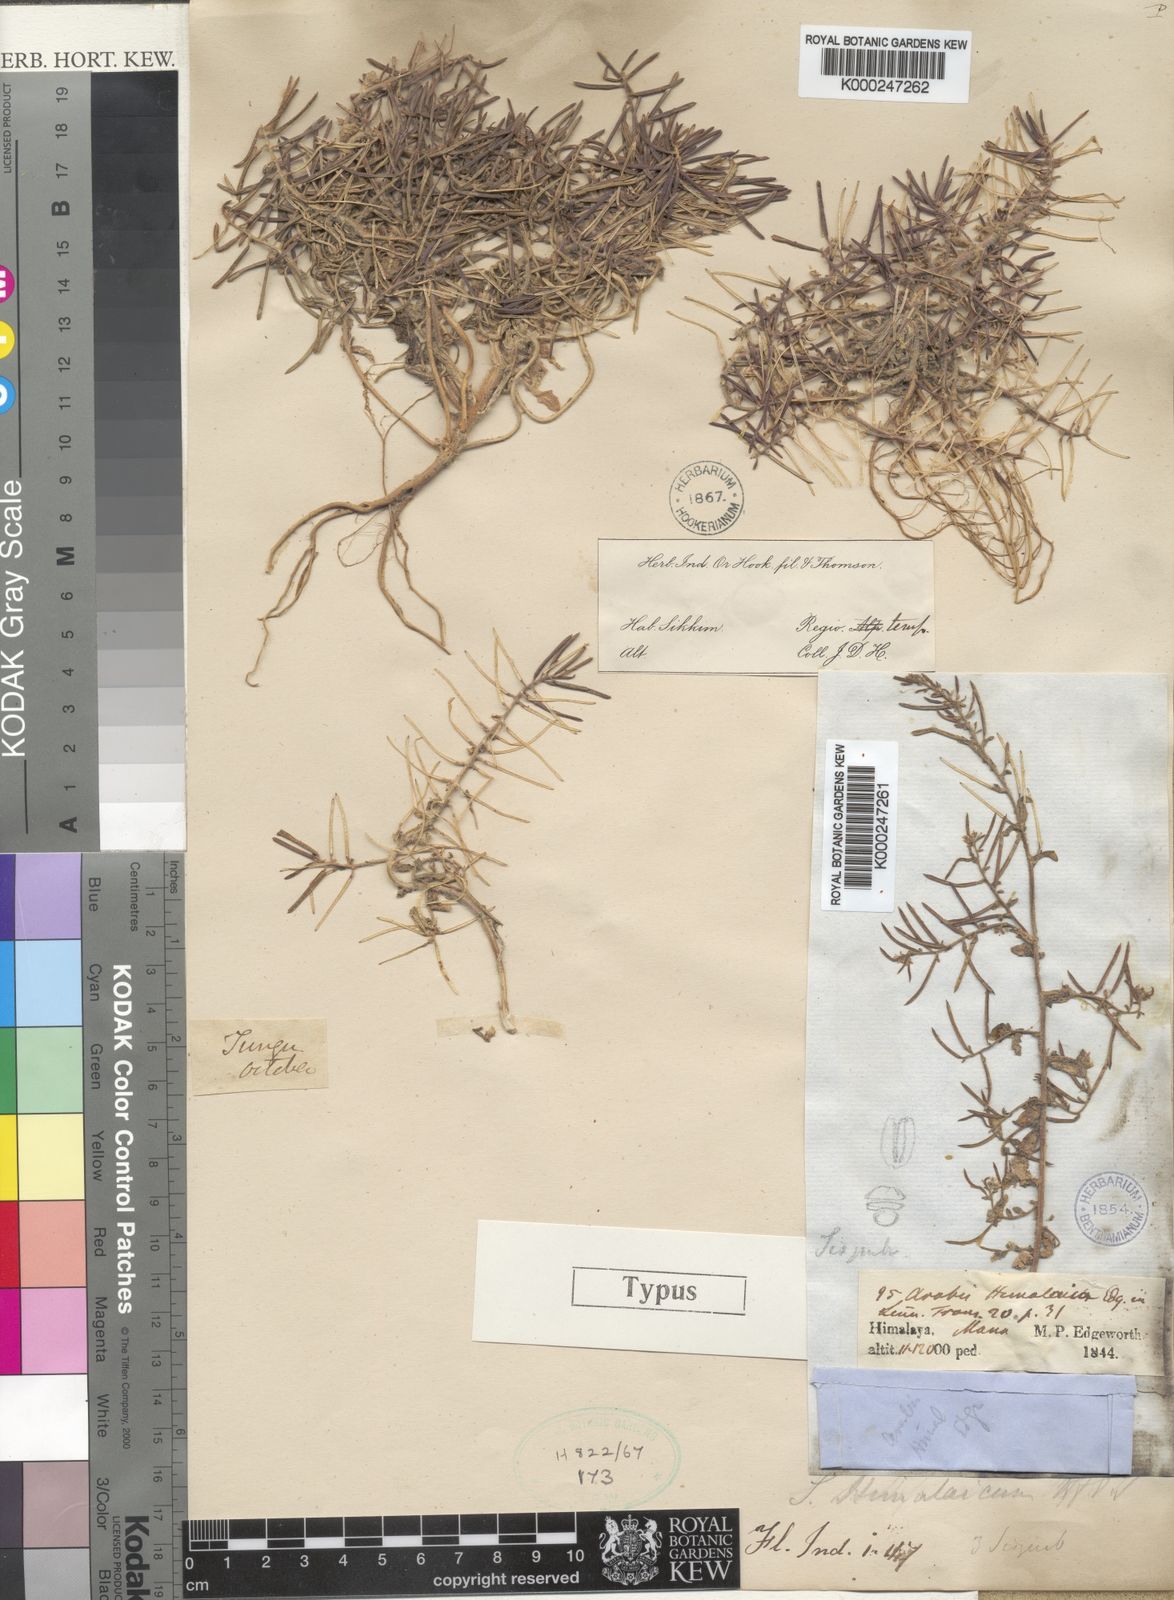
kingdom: Plantae
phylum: Tracheophyta
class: Magnoliopsida
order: Brassicales
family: Brassicaceae
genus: Crucihimalaya
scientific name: Crucihimalaya himalaica
